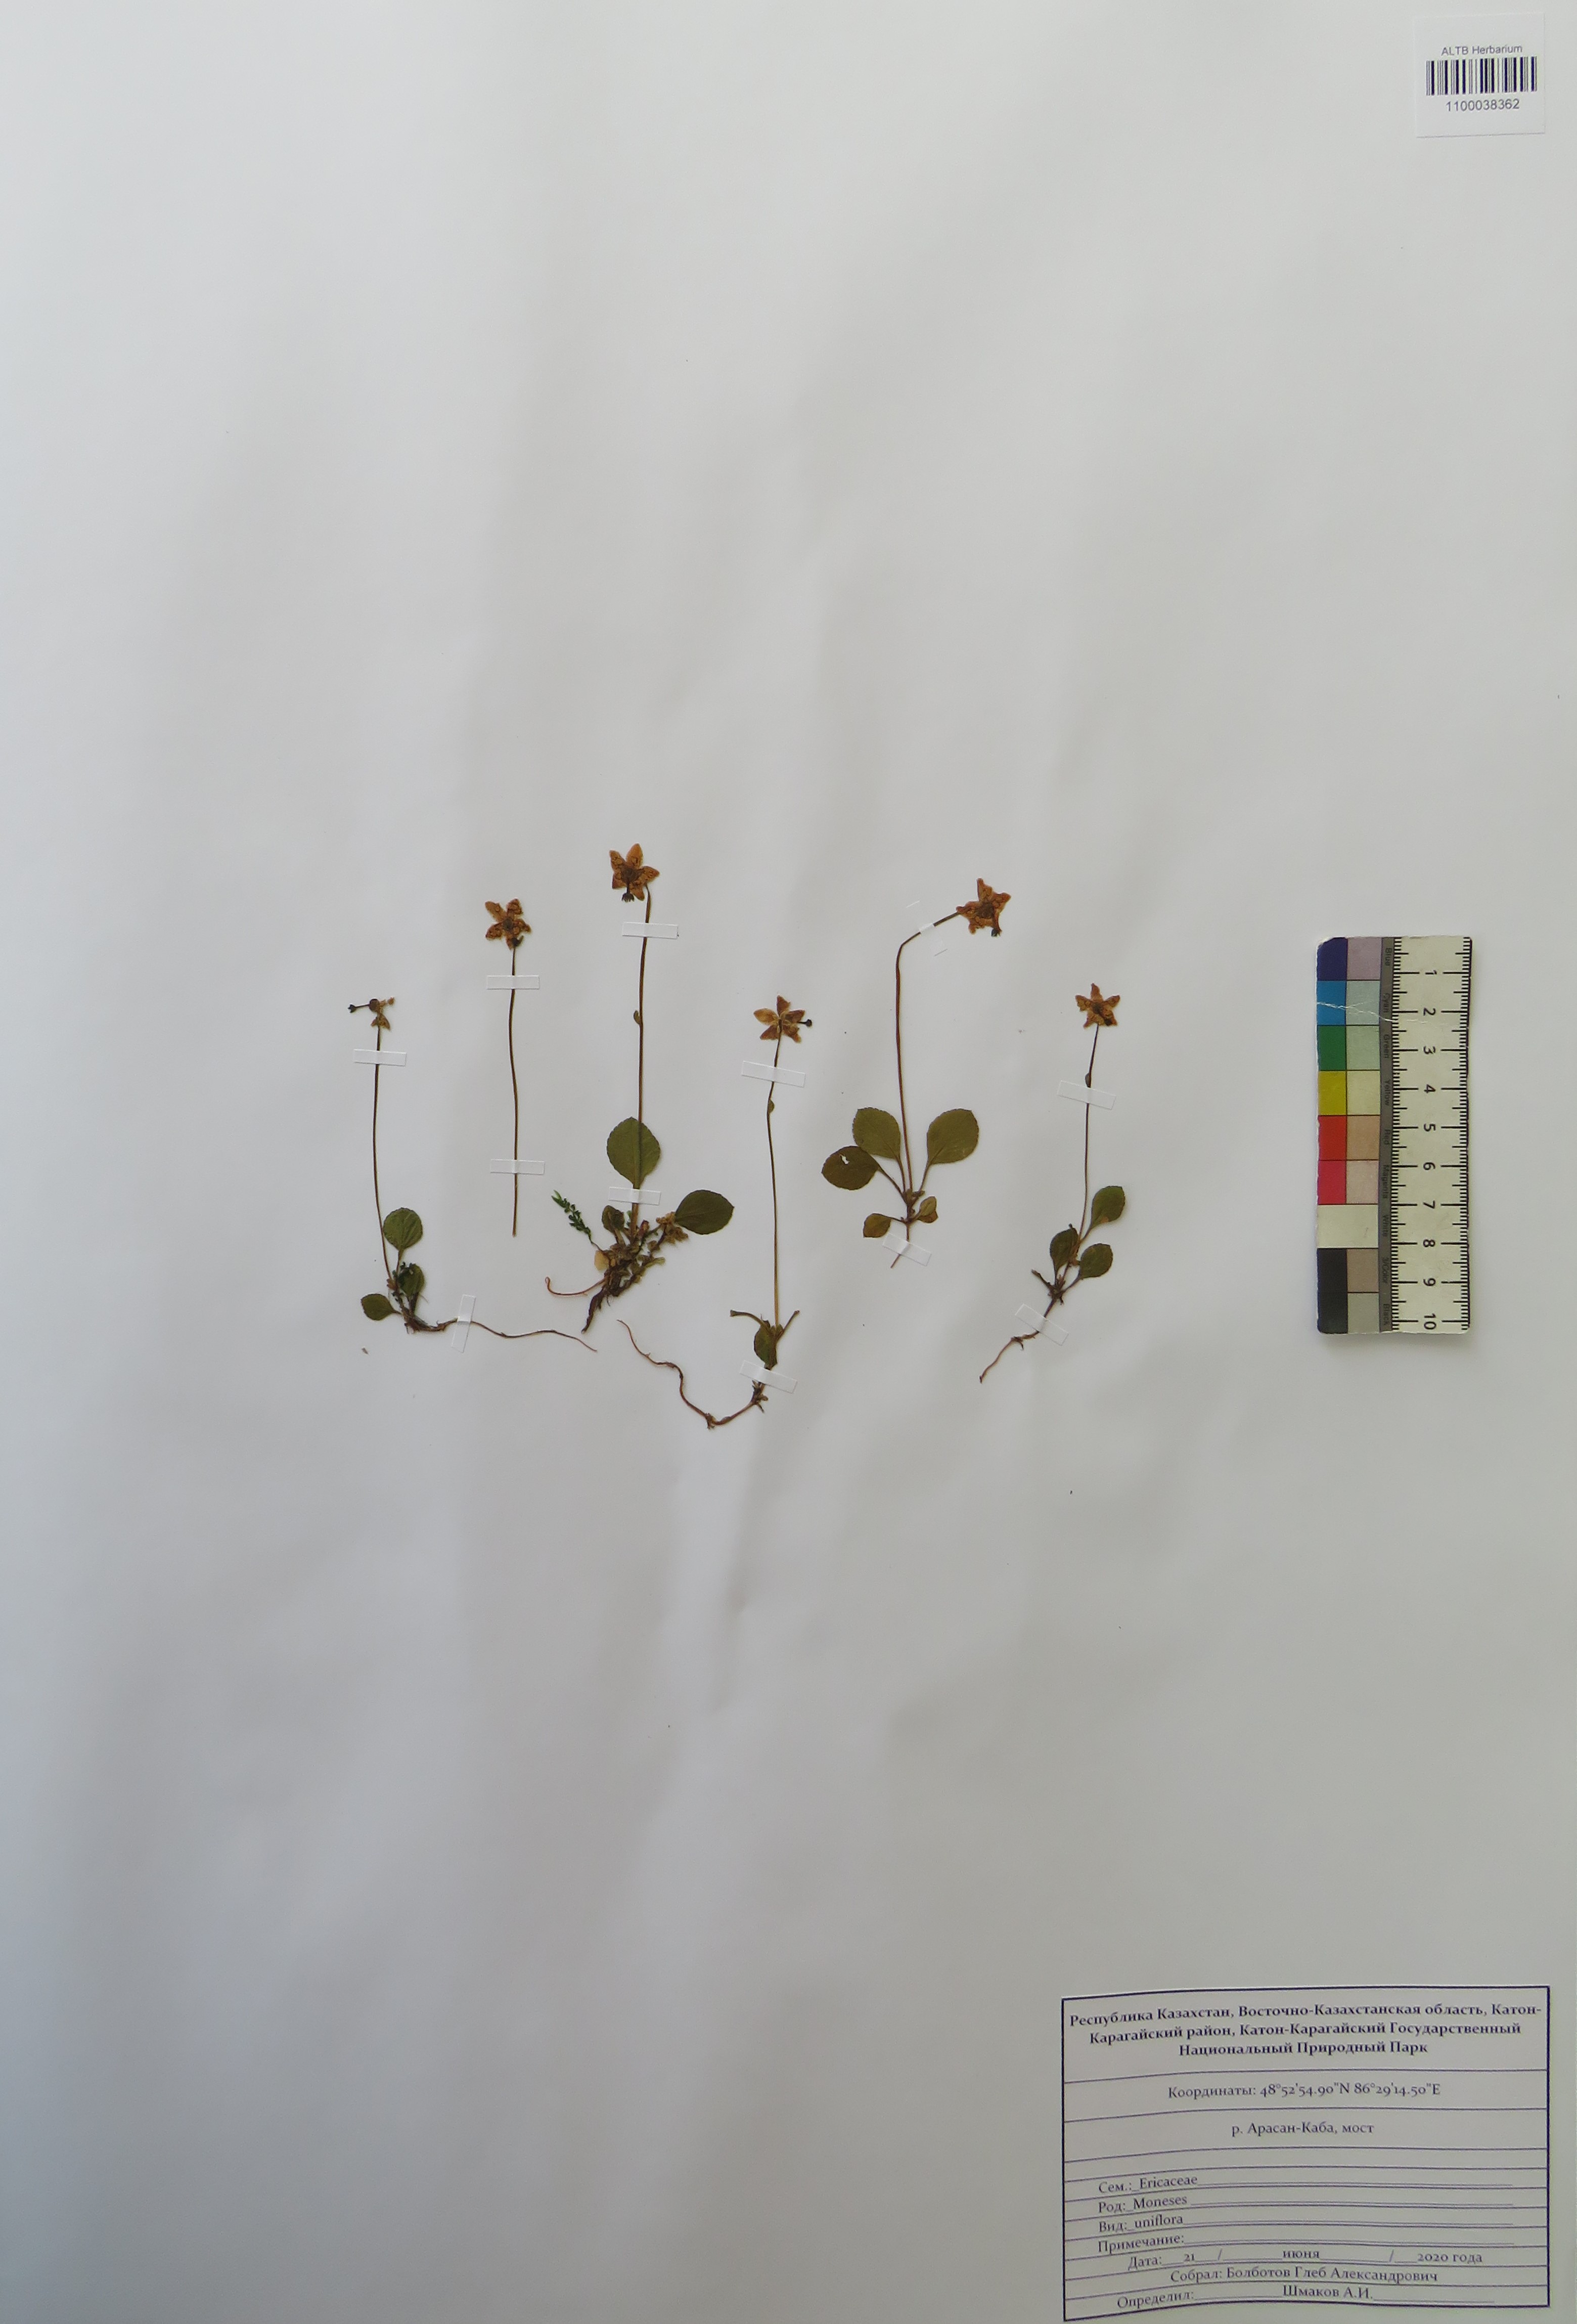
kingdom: Plantae
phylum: Tracheophyta
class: Magnoliopsida
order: Ericales
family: Ericaceae
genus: Moneses
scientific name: Moneses uniflora
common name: One-flowered wintergreen
